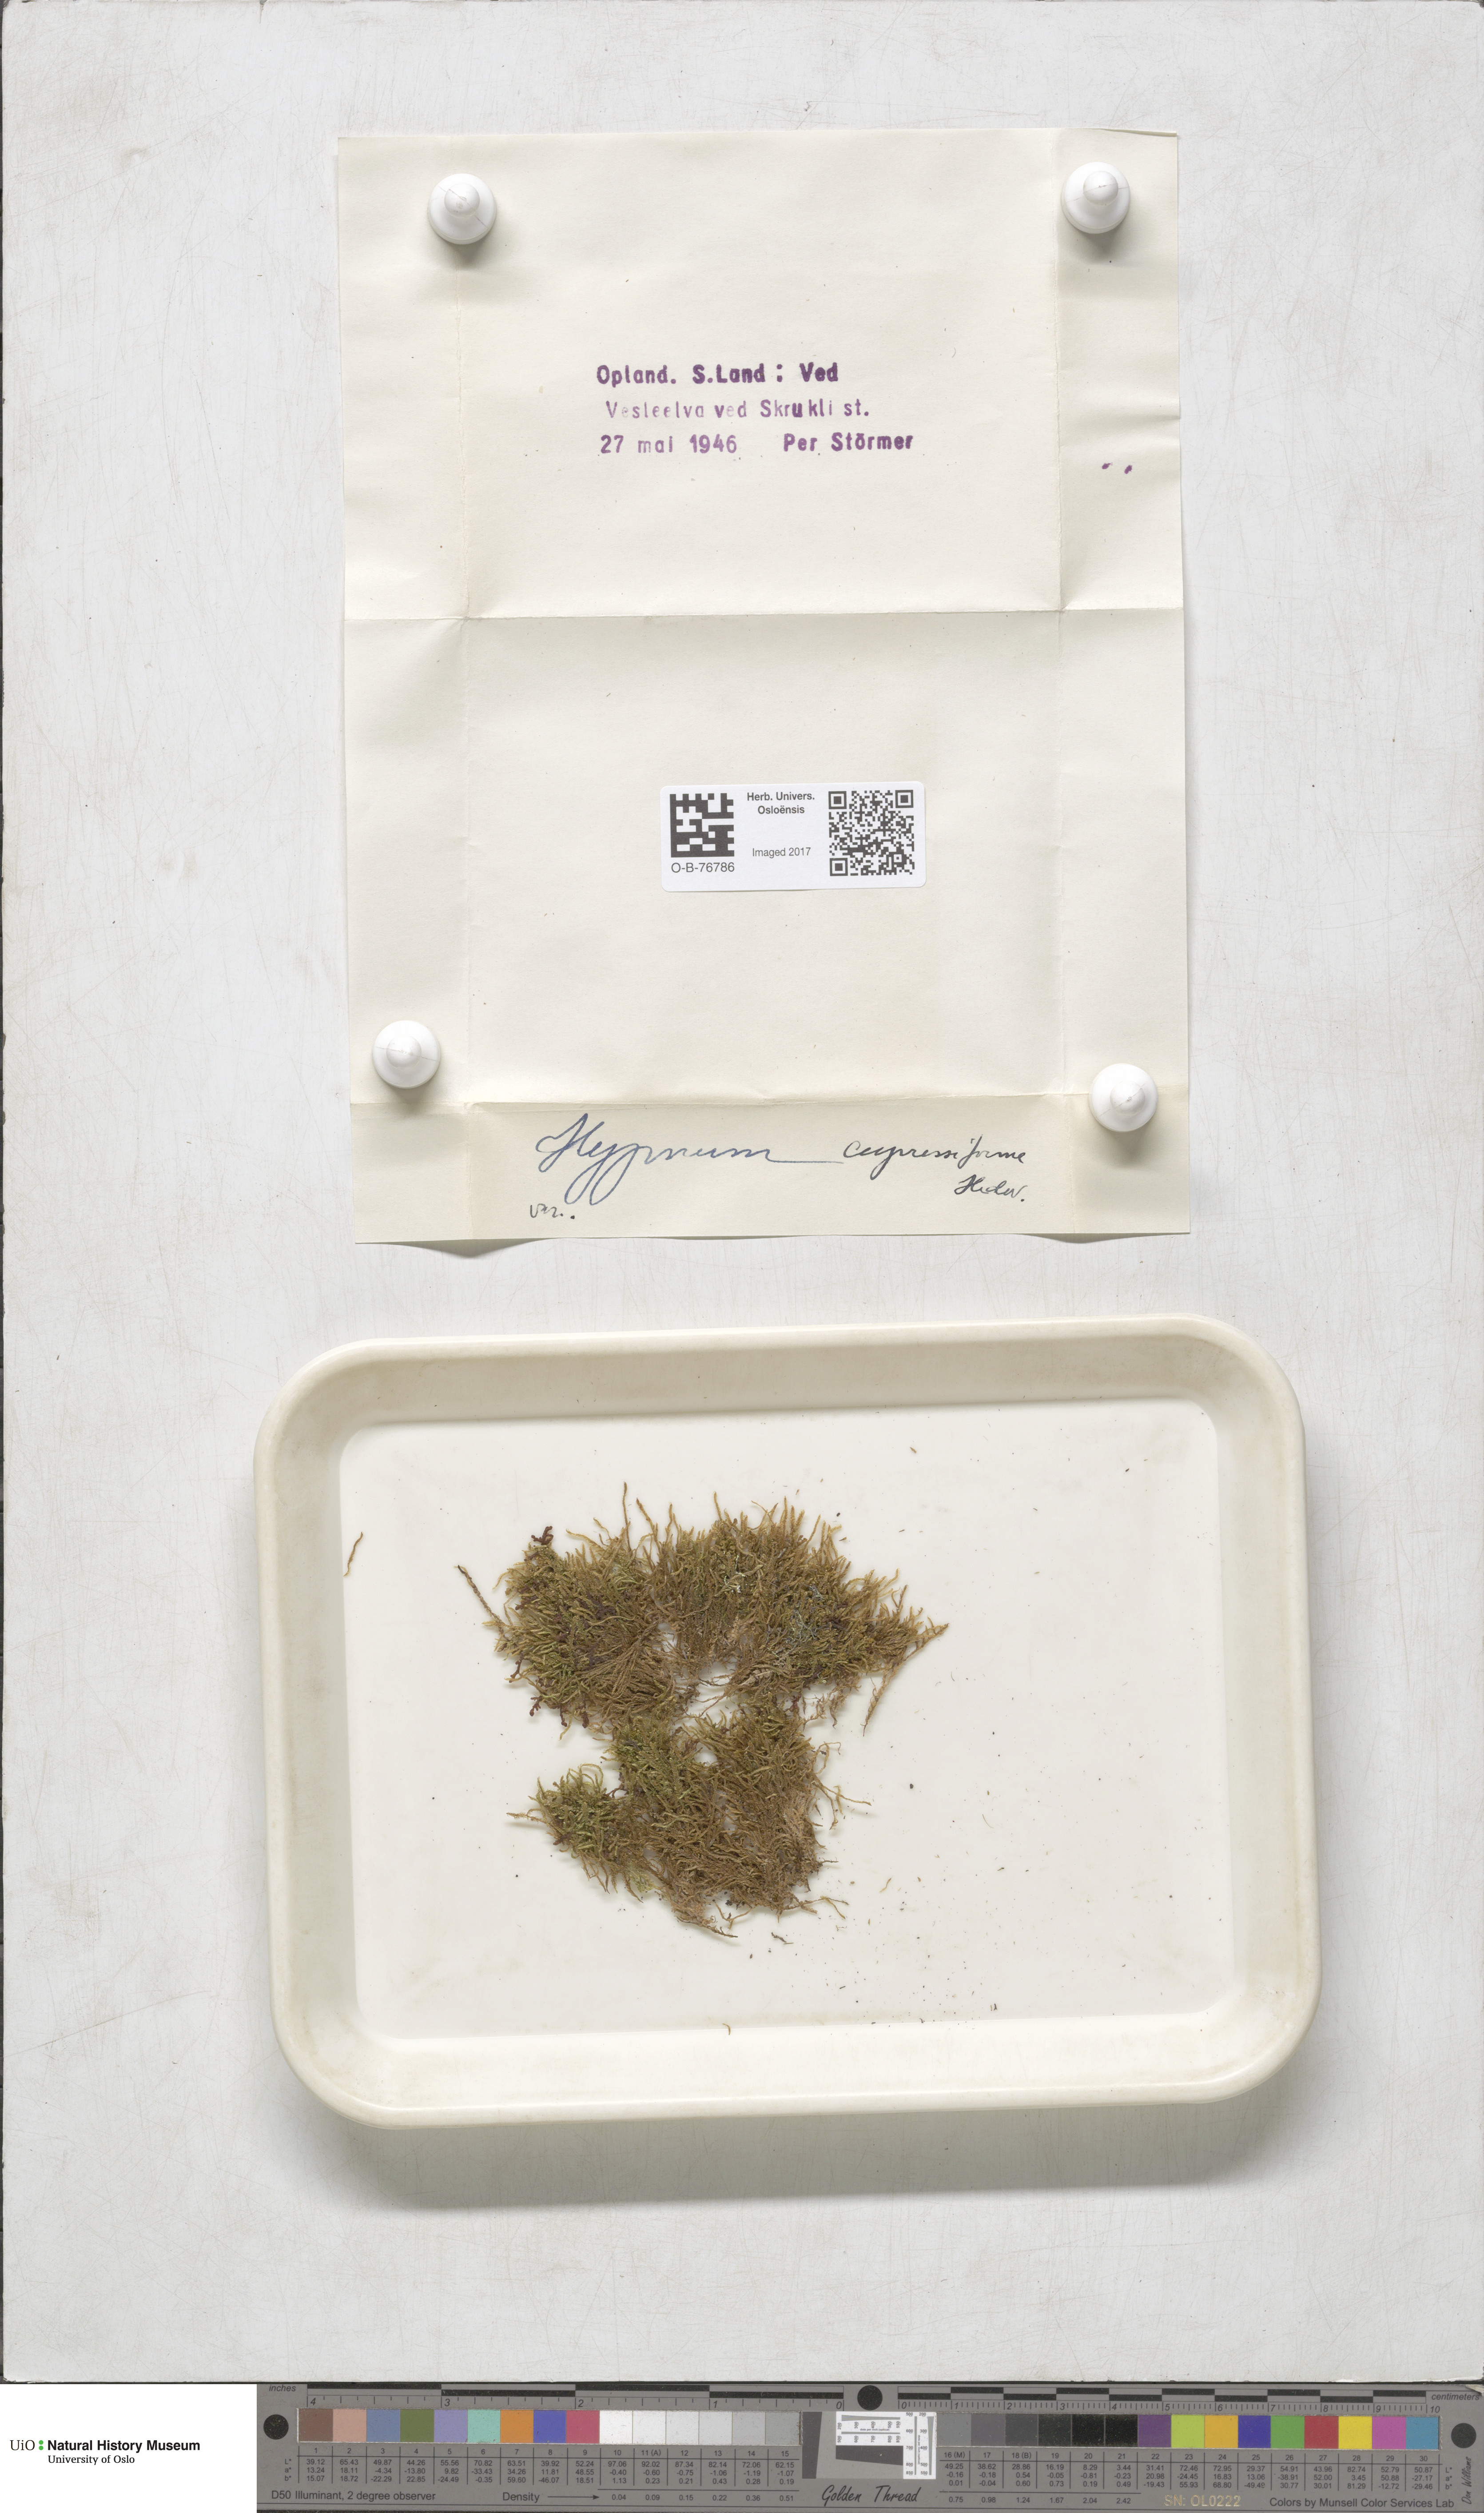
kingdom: Plantae
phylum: Bryophyta
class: Bryopsida
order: Hypnales
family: Hypnaceae
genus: Hypnum
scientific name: Hypnum cupressiforme
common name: Cypress-leaved plait-moss
